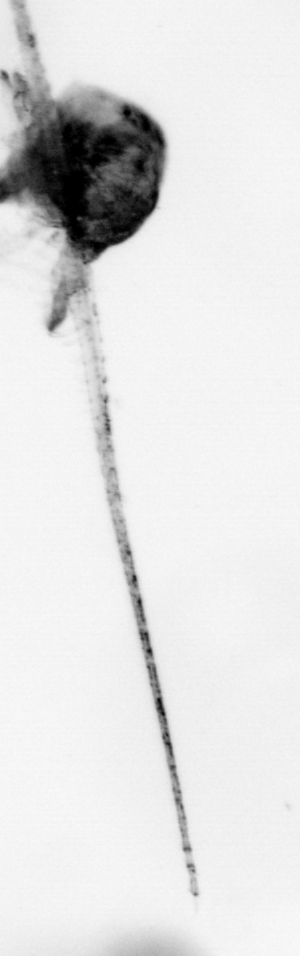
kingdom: Animalia
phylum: Arthropoda
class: Copepoda
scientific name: Copepoda
